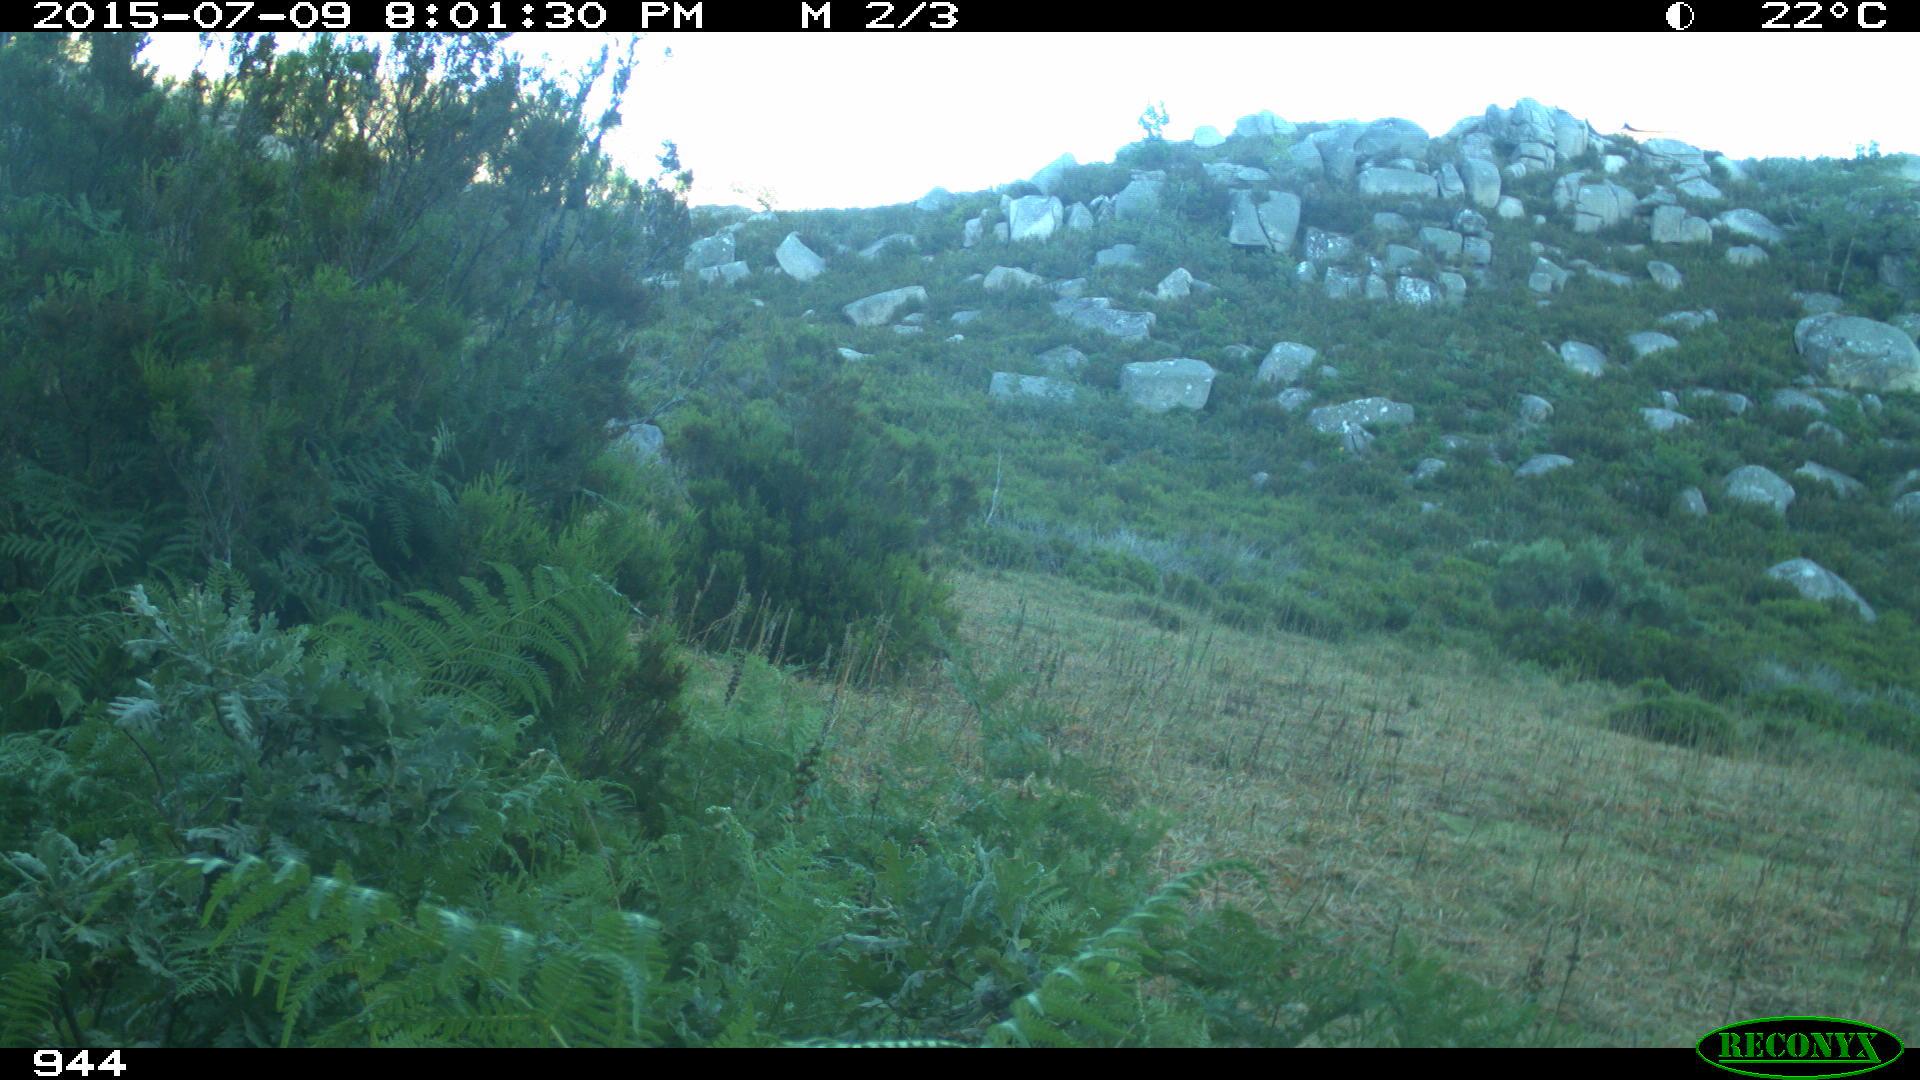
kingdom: Animalia
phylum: Chordata
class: Mammalia
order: Perissodactyla
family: Equidae
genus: Equus
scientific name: Equus caballus
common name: Horse
